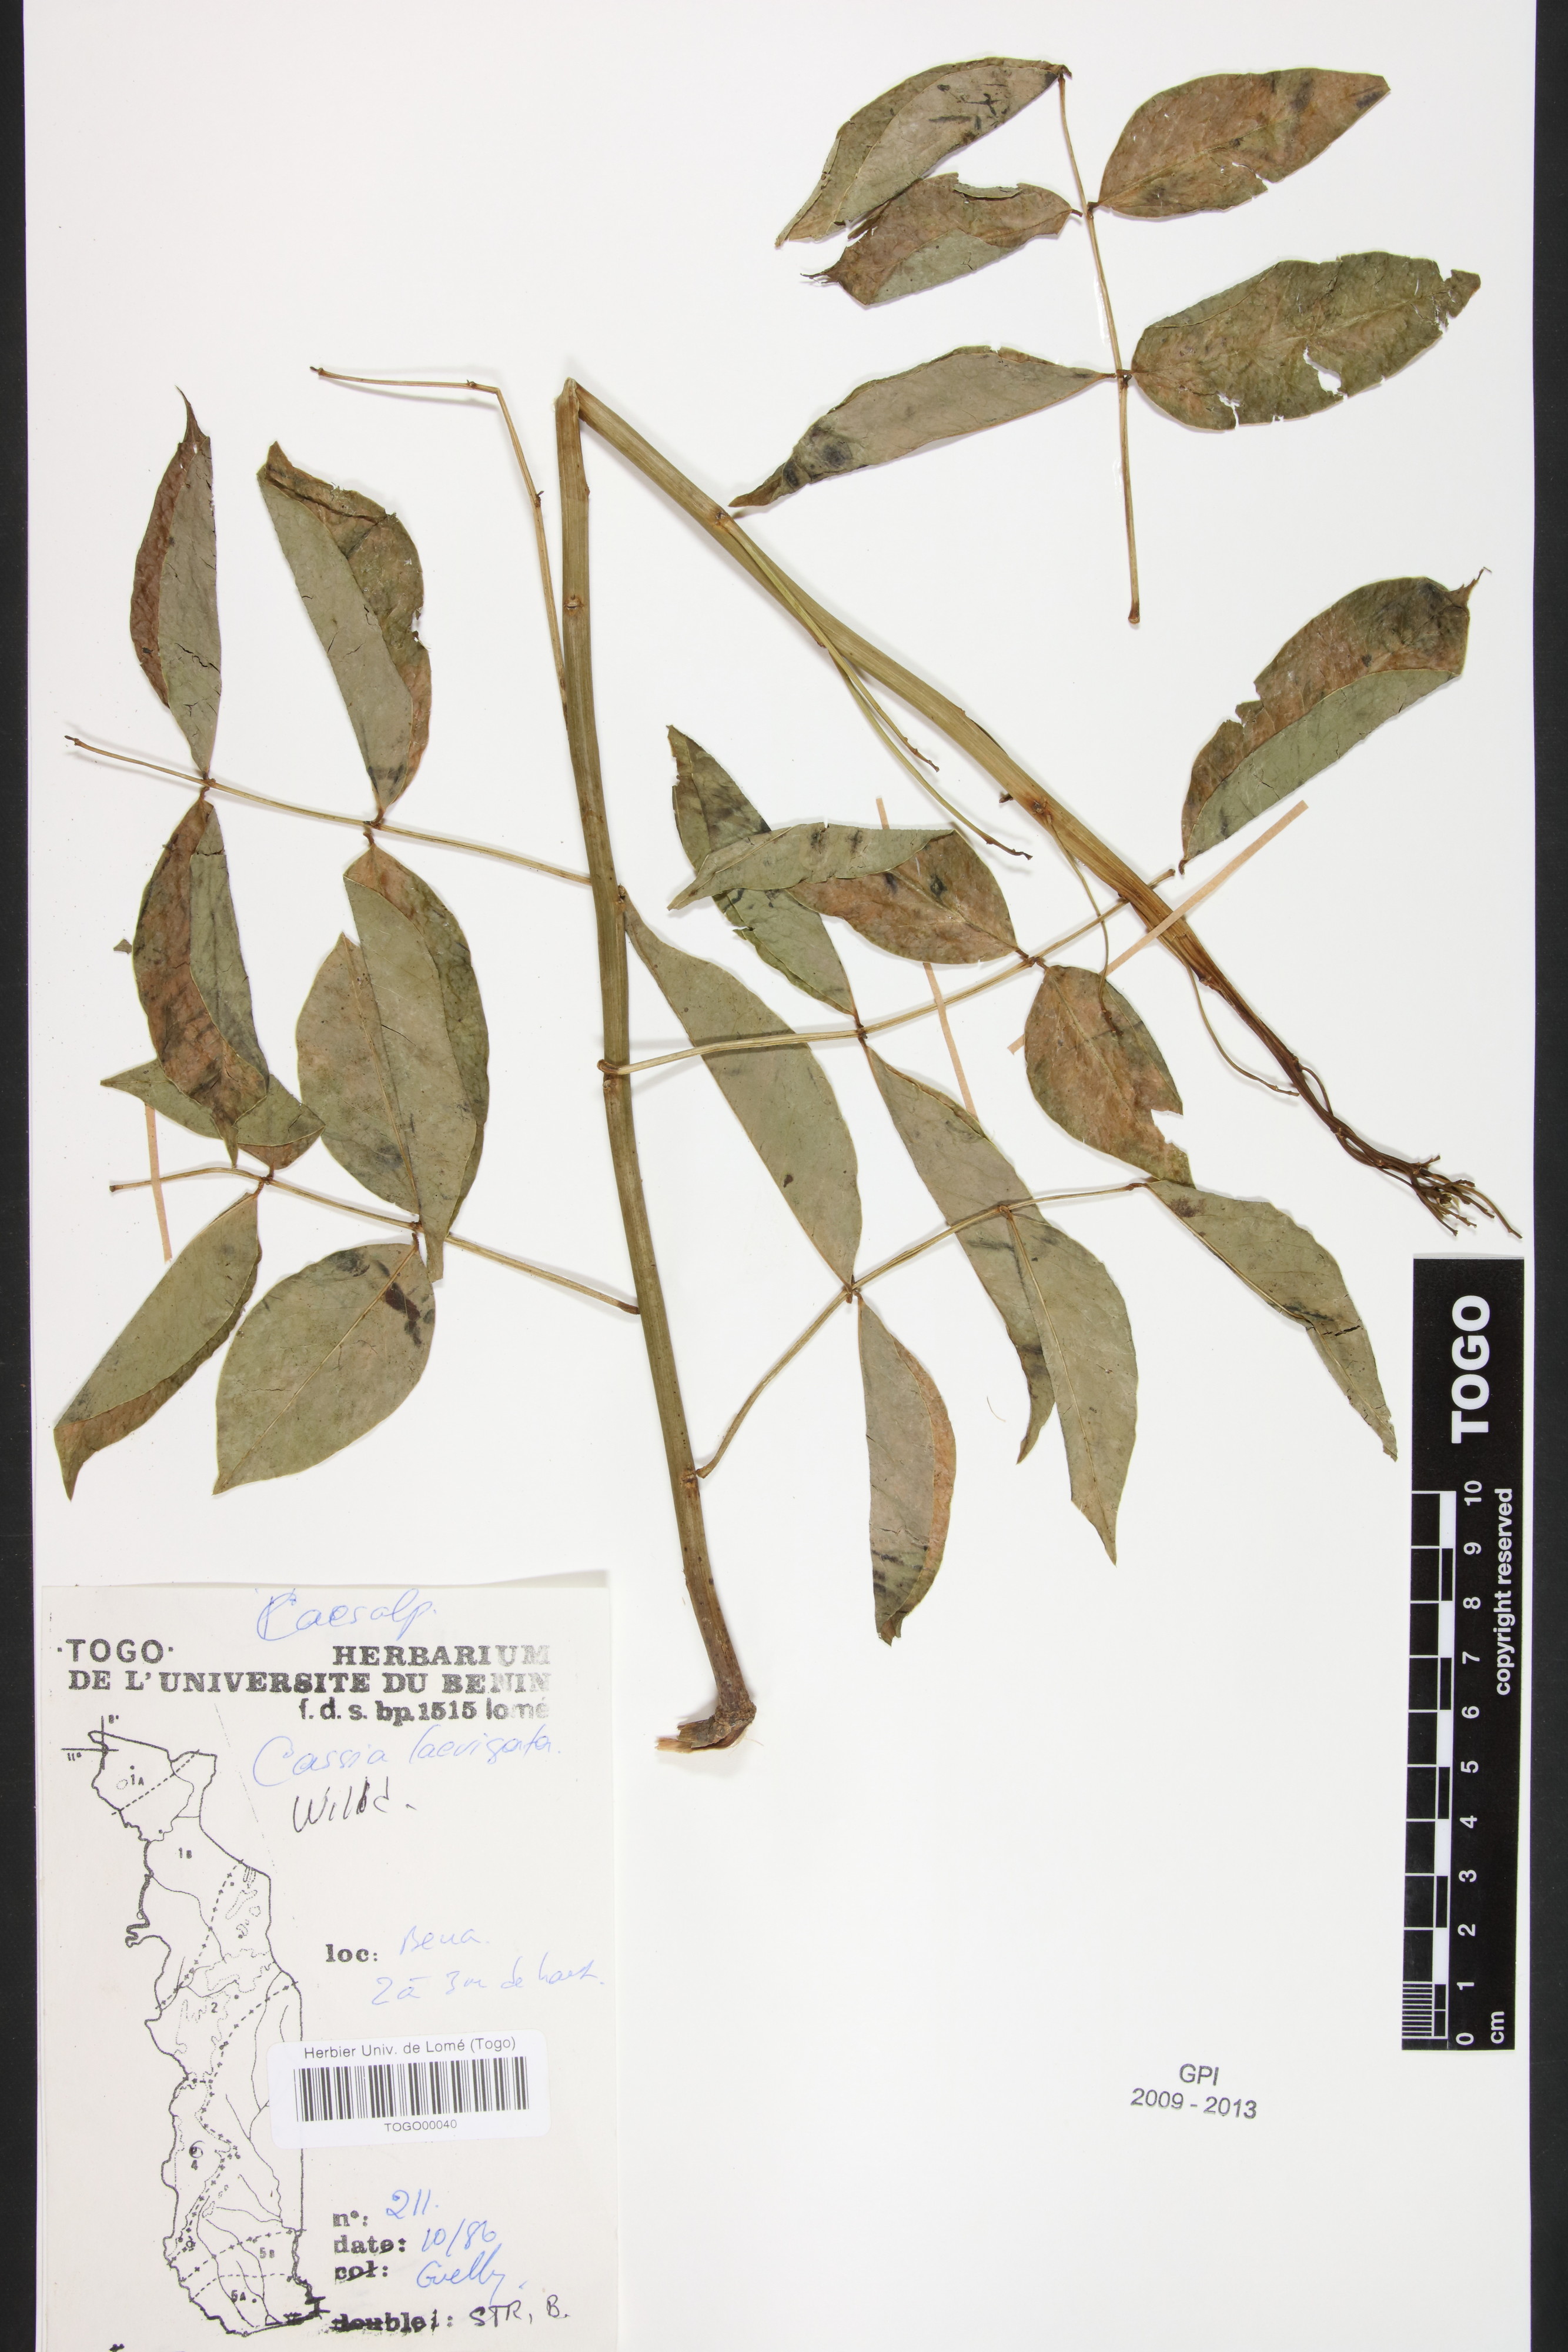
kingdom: Plantae
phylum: Tracheophyta
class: Magnoliopsida
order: Fabales
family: Fabaceae
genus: Senna
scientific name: Senna
